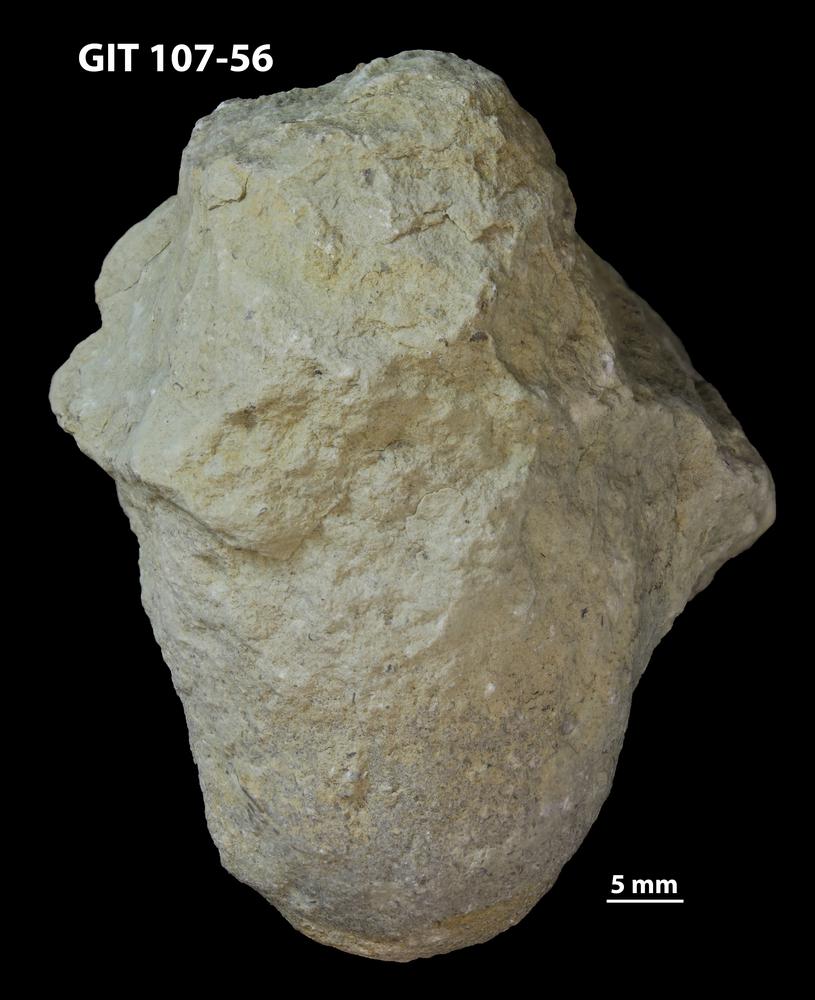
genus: Amphorichnus
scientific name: Amphorichnus
